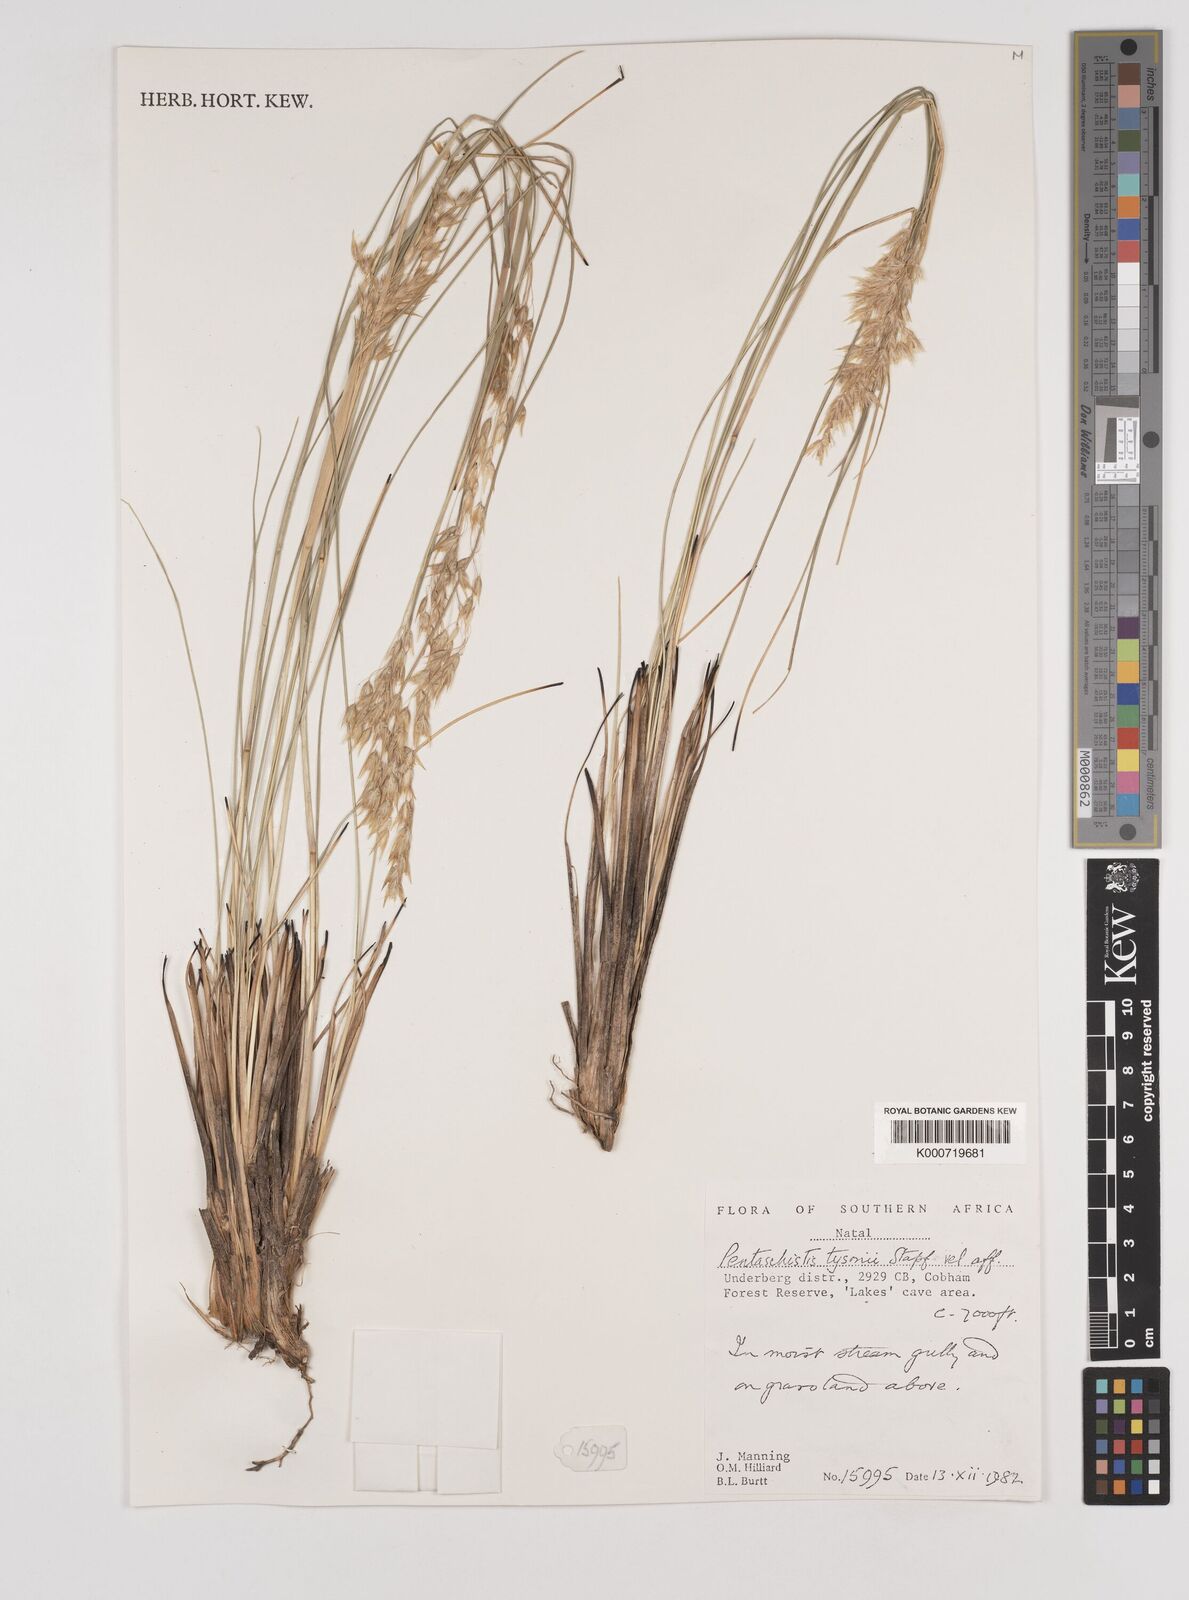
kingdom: Plantae
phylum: Tracheophyta
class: Liliopsida
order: Poales
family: Poaceae
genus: Pentameris
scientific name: Pentameris tysonii
